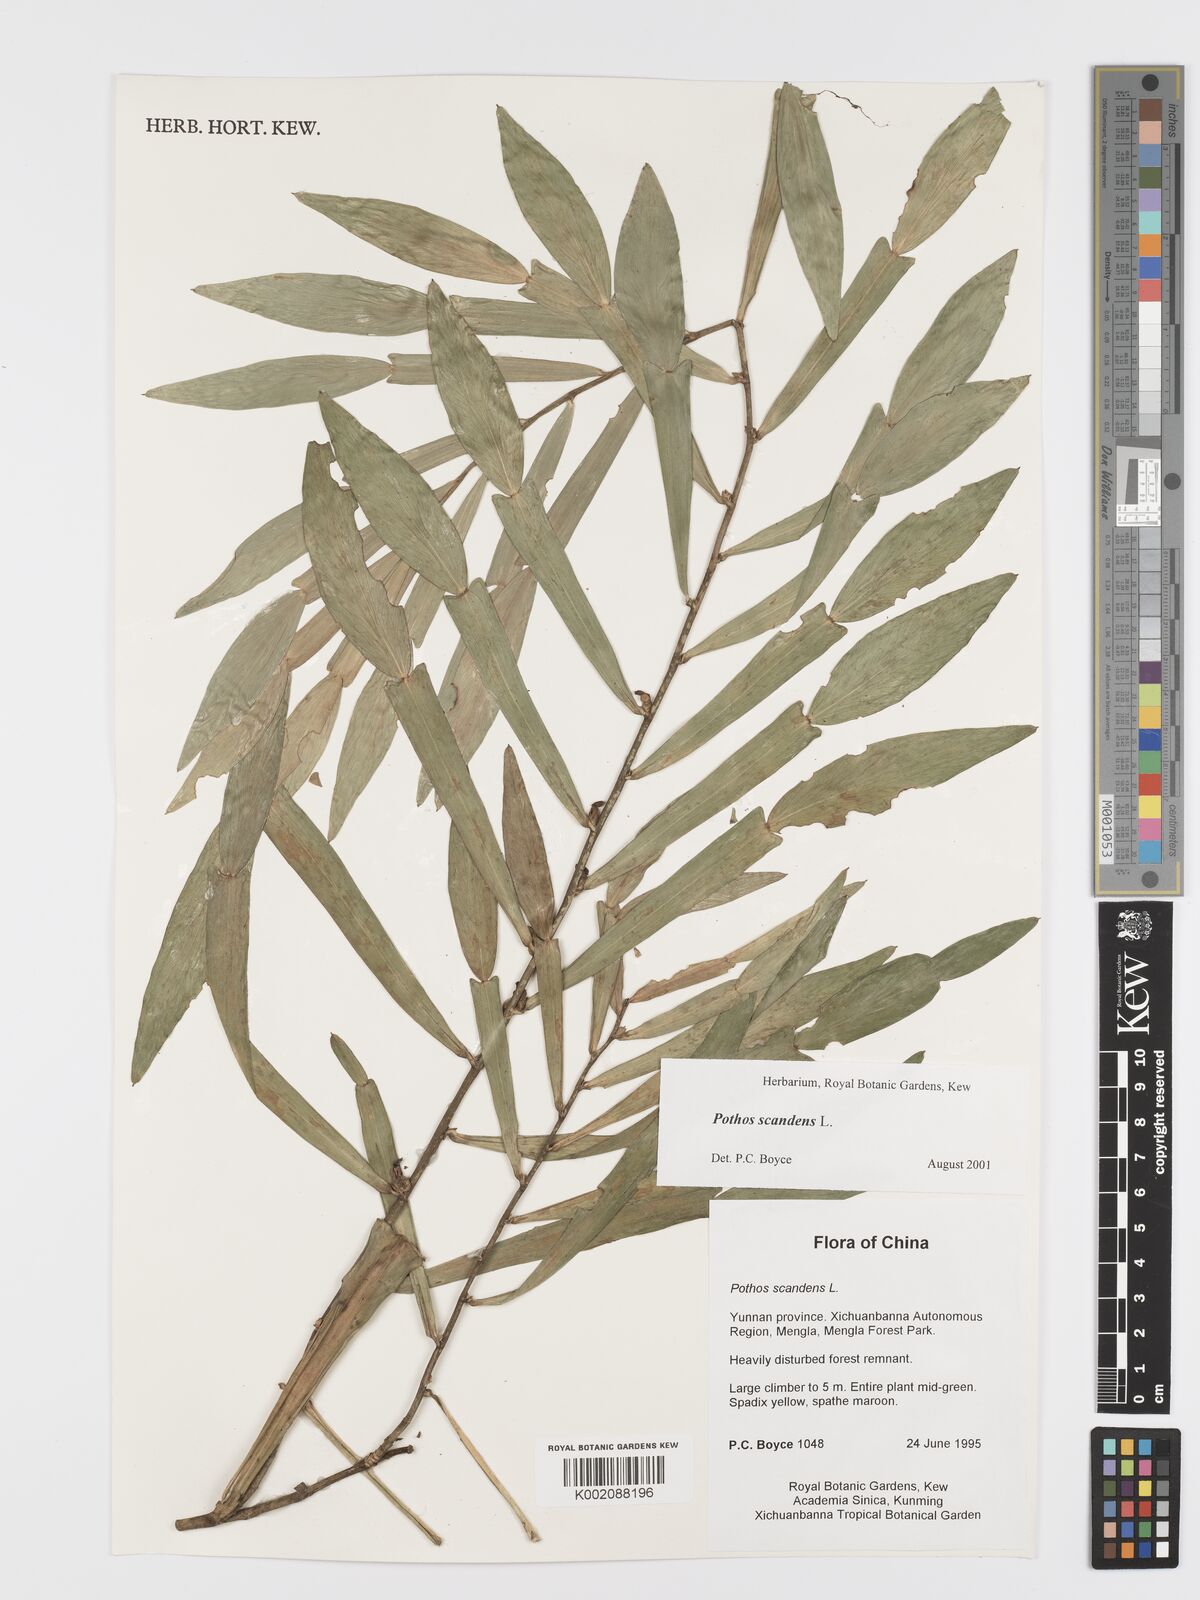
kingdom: Plantae
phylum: Tracheophyta
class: Liliopsida
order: Alismatales
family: Araceae
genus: Pothos
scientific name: Pothos scandens
